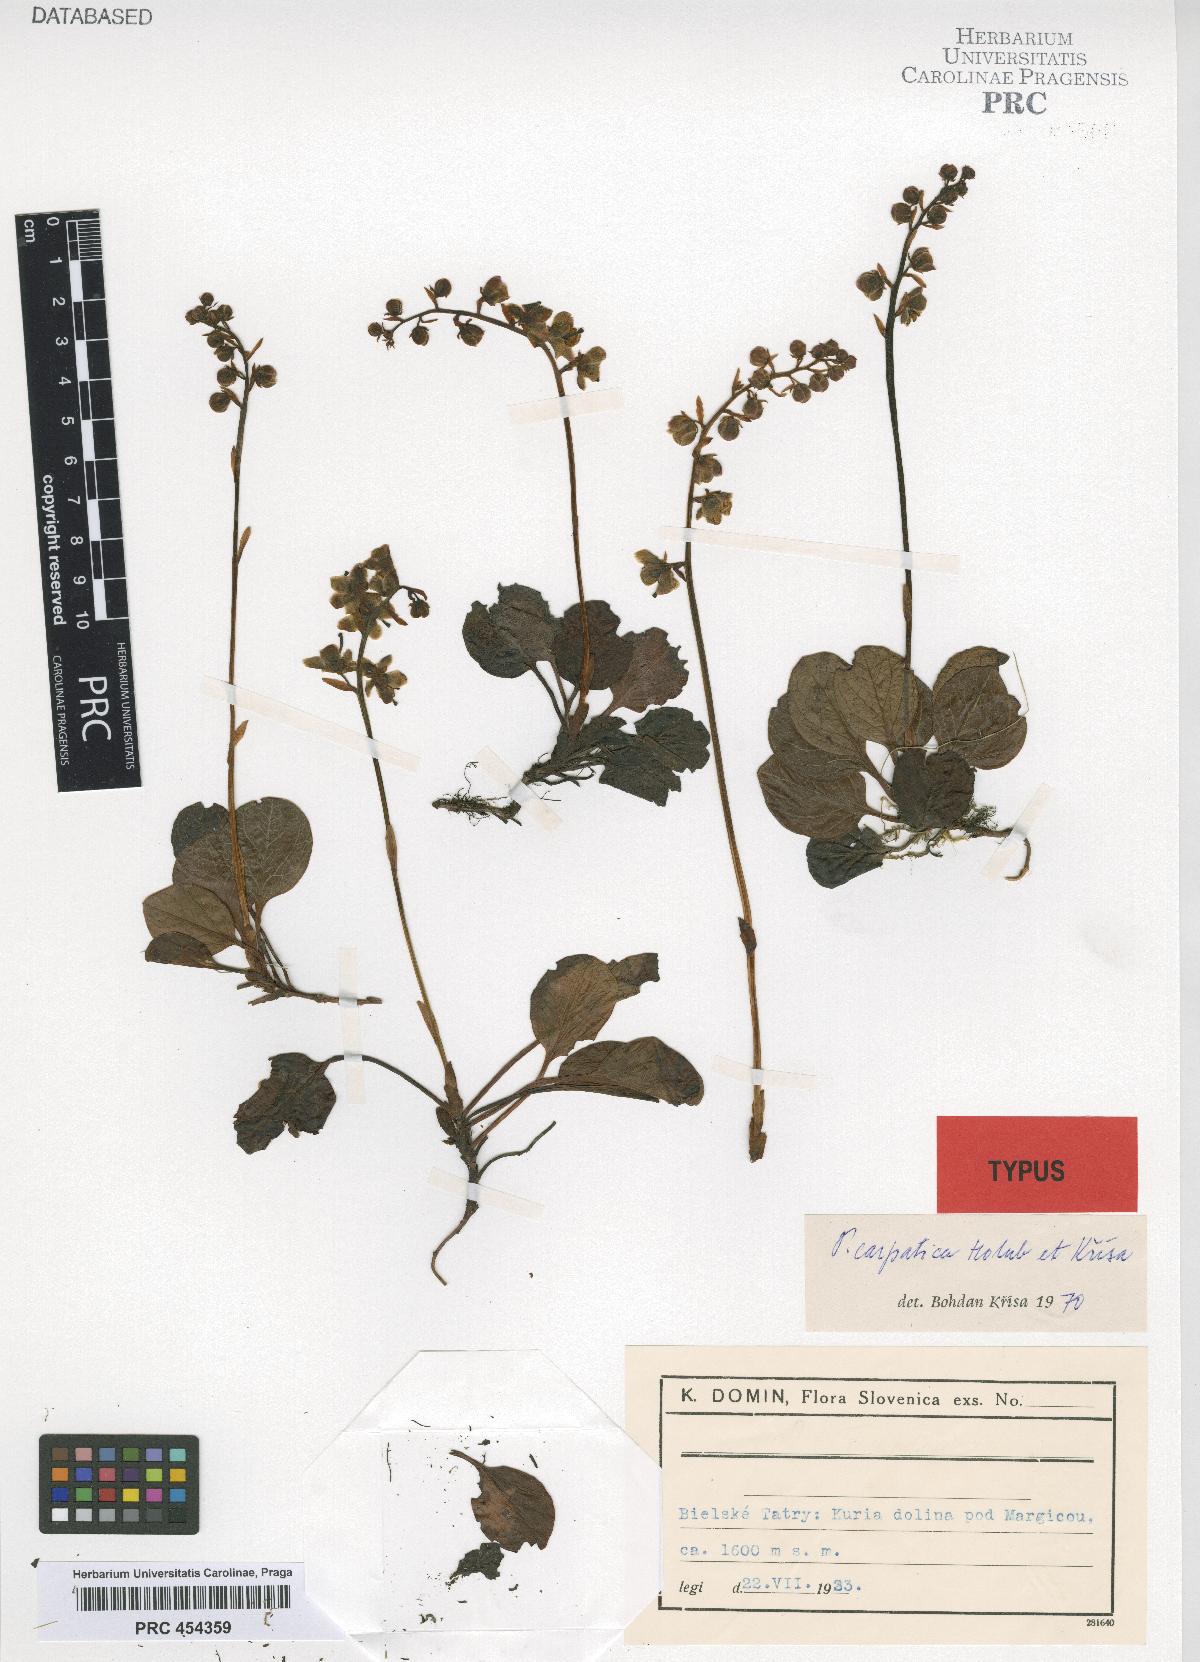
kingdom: Plantae
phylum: Tracheophyta
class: Magnoliopsida
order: Ericales
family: Ericaceae
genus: Pyrola
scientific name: Pyrola carpatica
